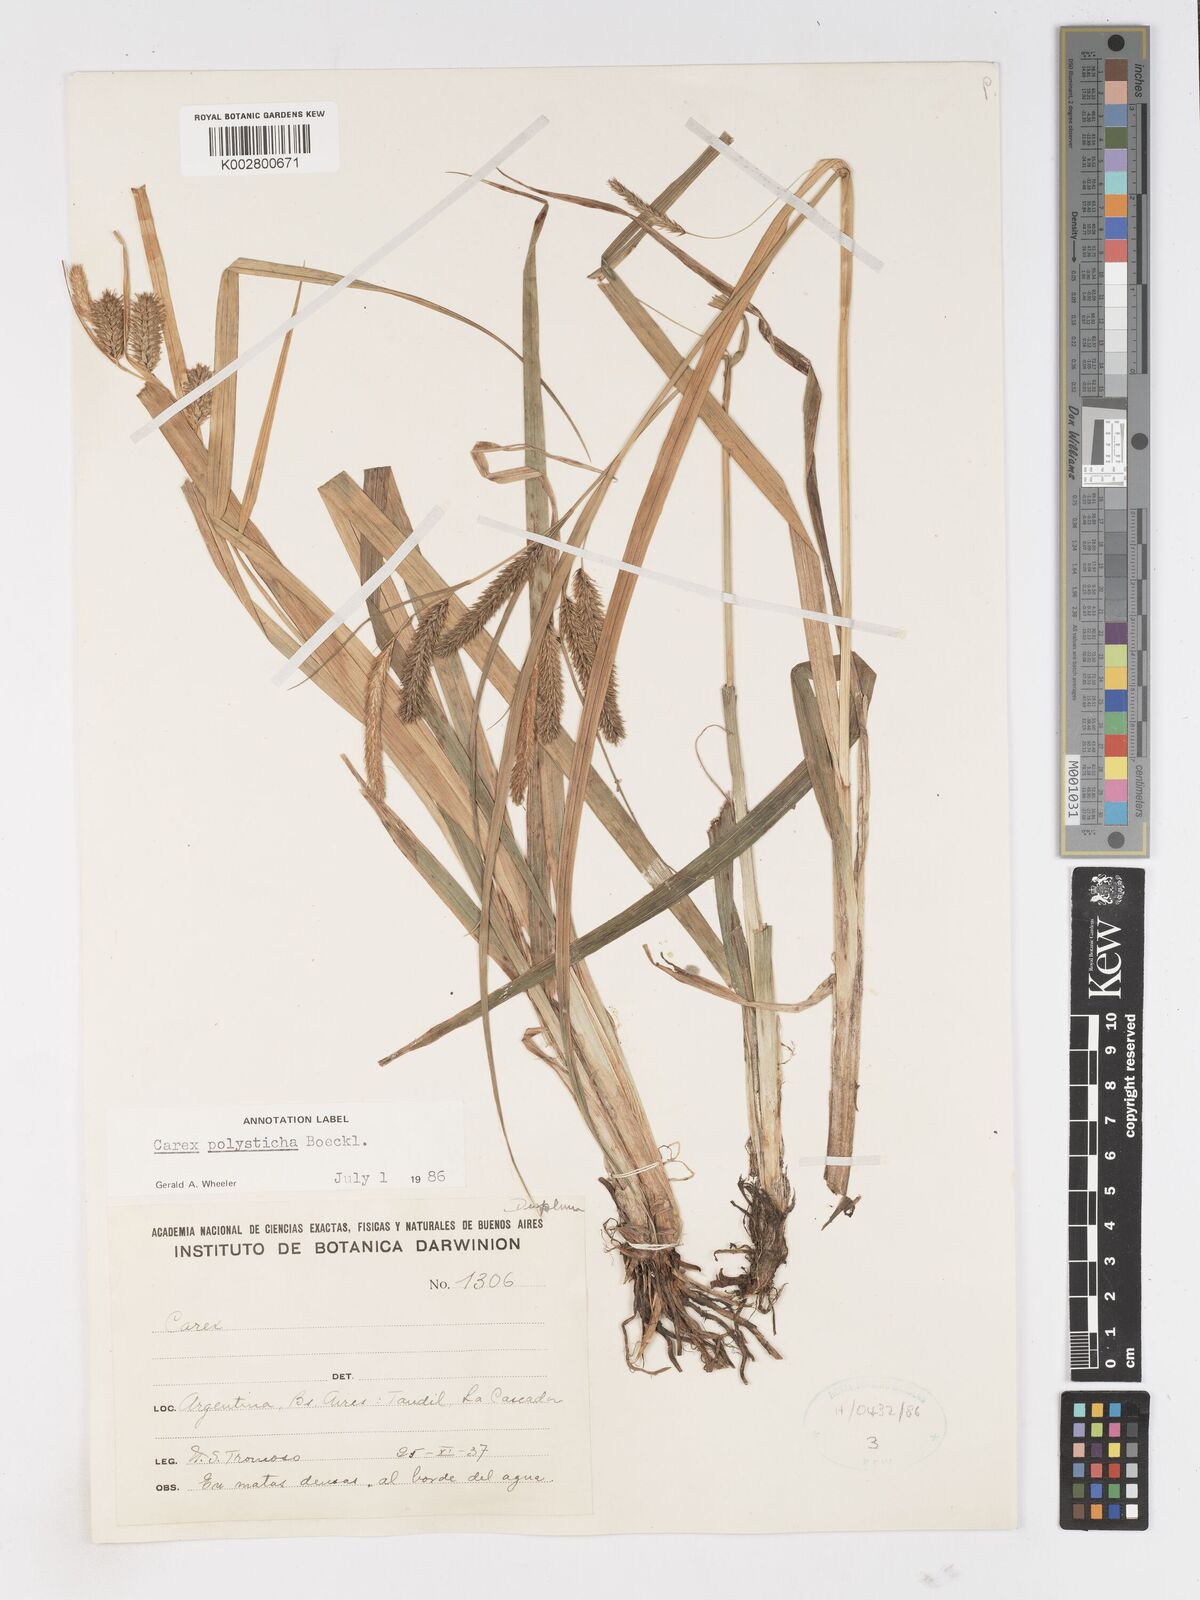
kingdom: Plantae
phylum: Tracheophyta
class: Liliopsida
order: Poales
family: Cyperaceae
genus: Carex
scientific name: Carex polysticha
